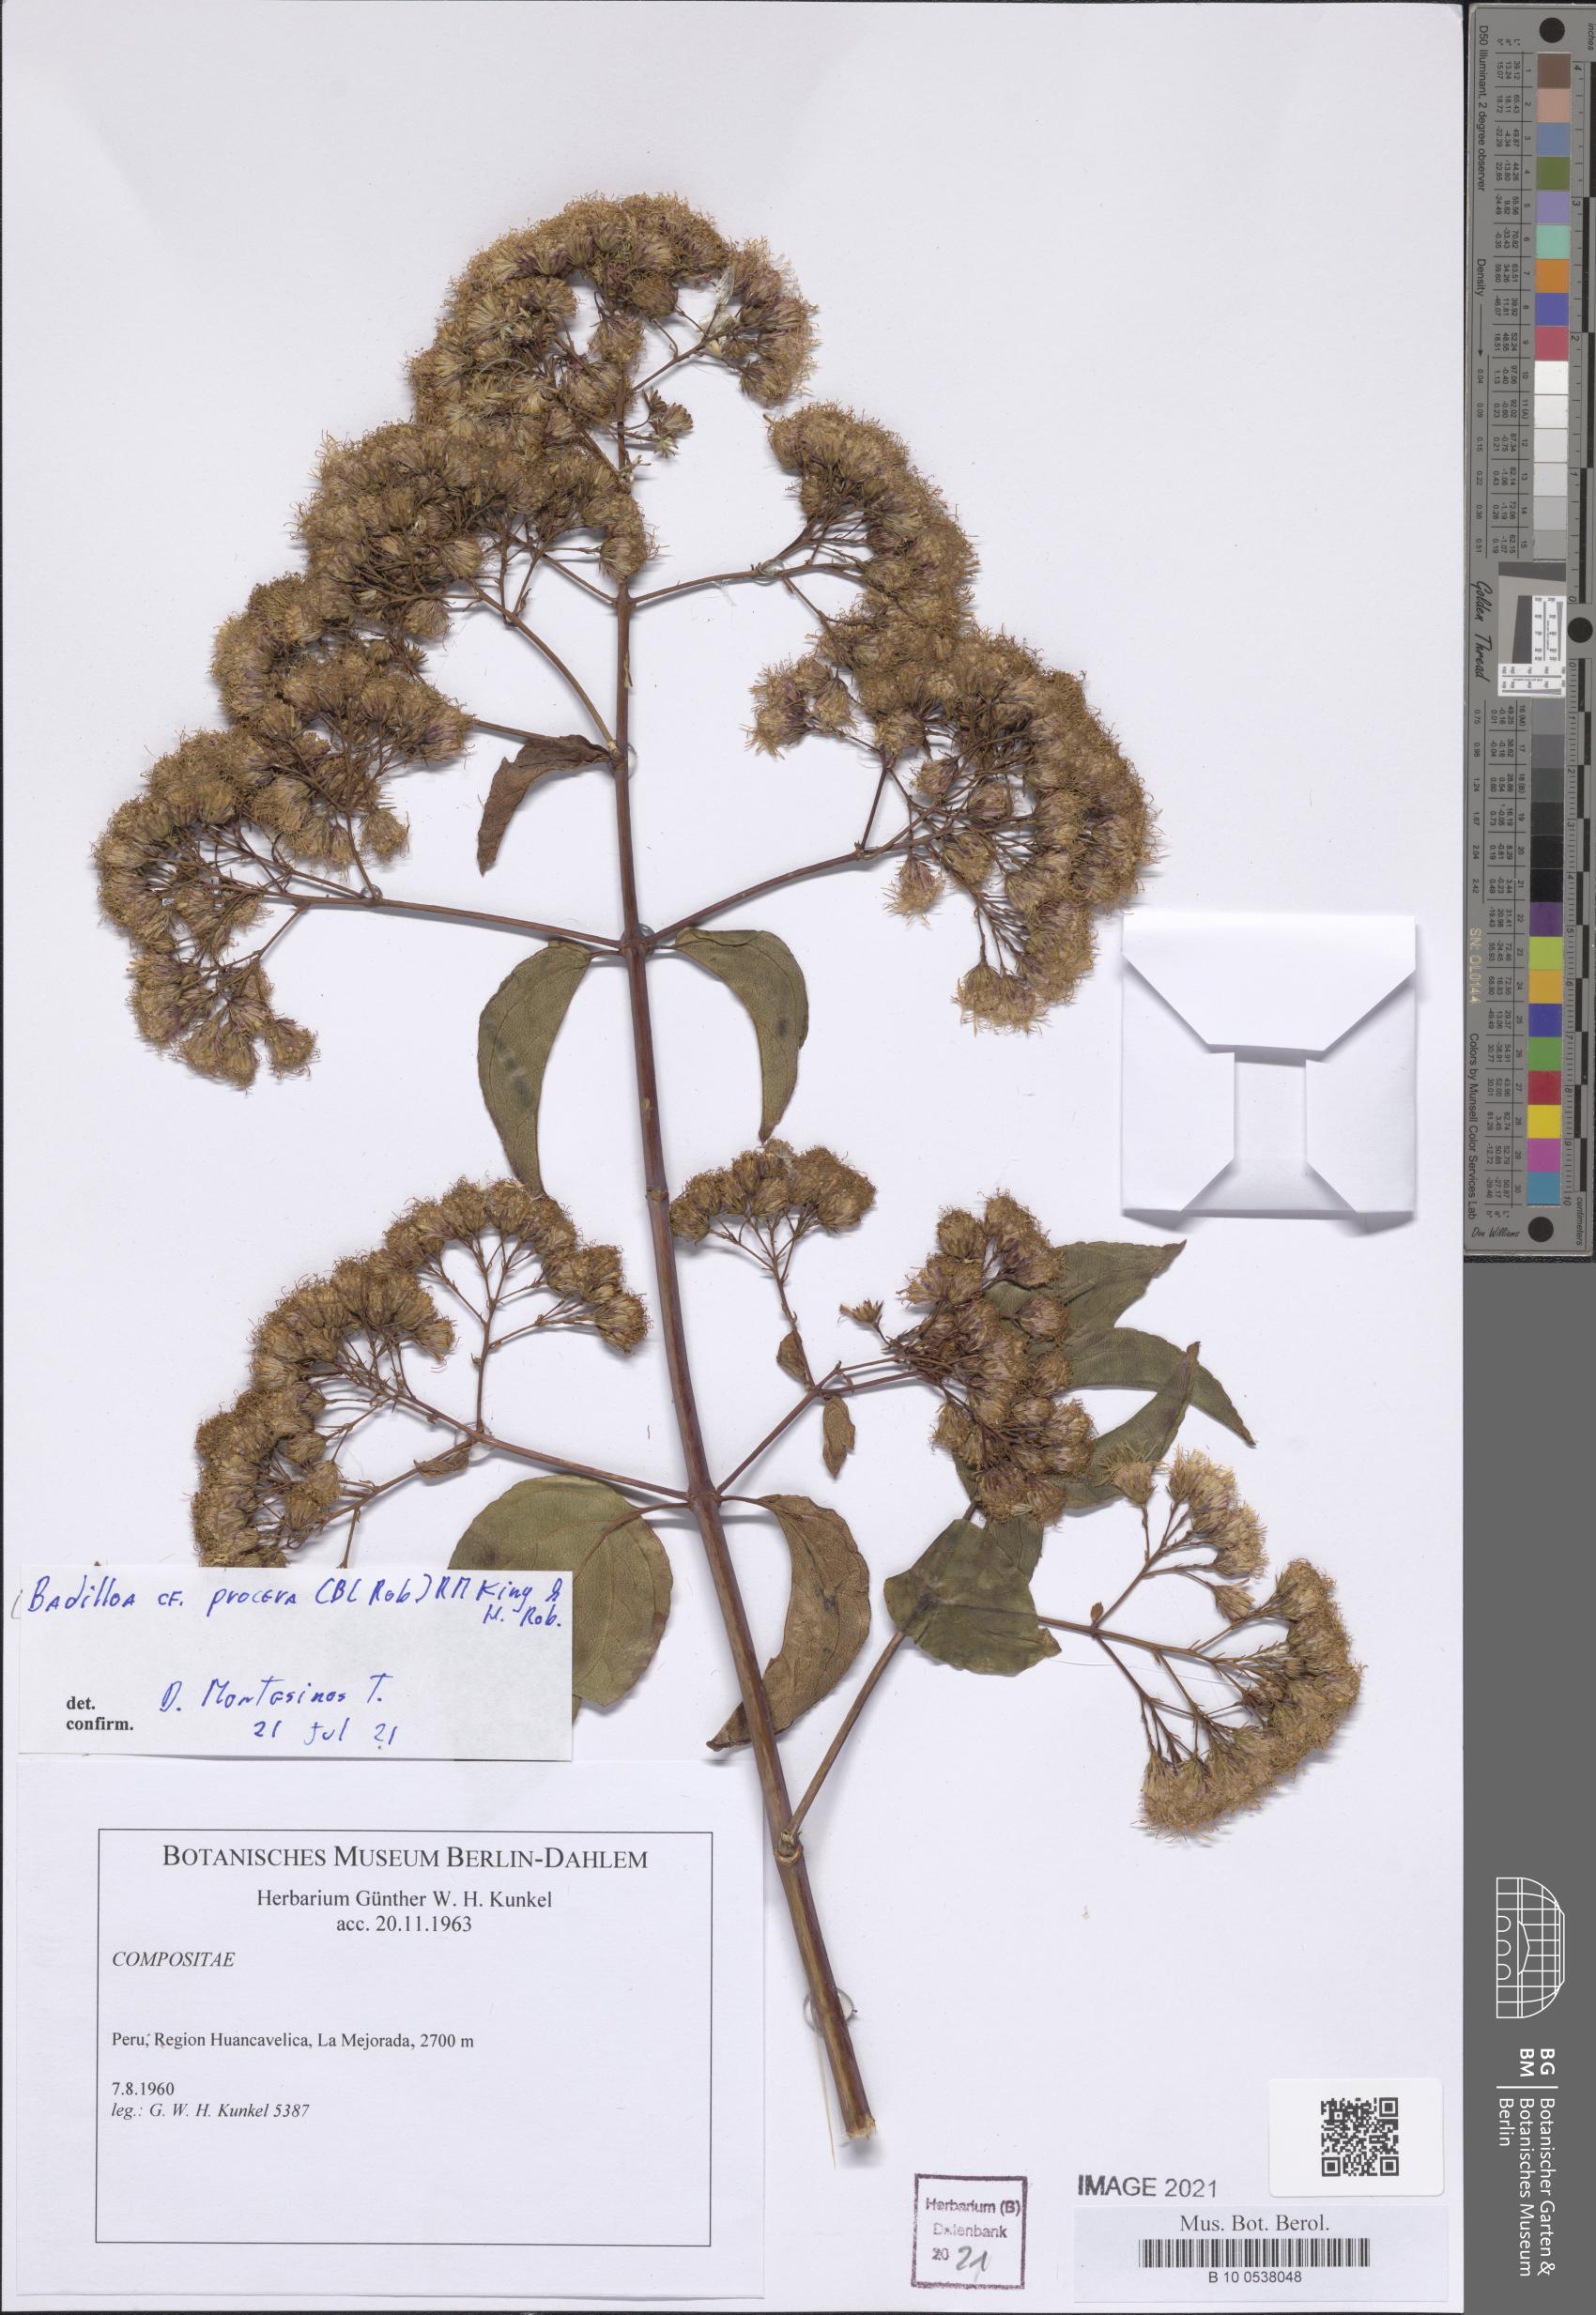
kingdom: Plantae
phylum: Tracheophyta
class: Magnoliopsida
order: Asterales
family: Asteraceae
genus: Badilloa
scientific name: Badilloa procera
